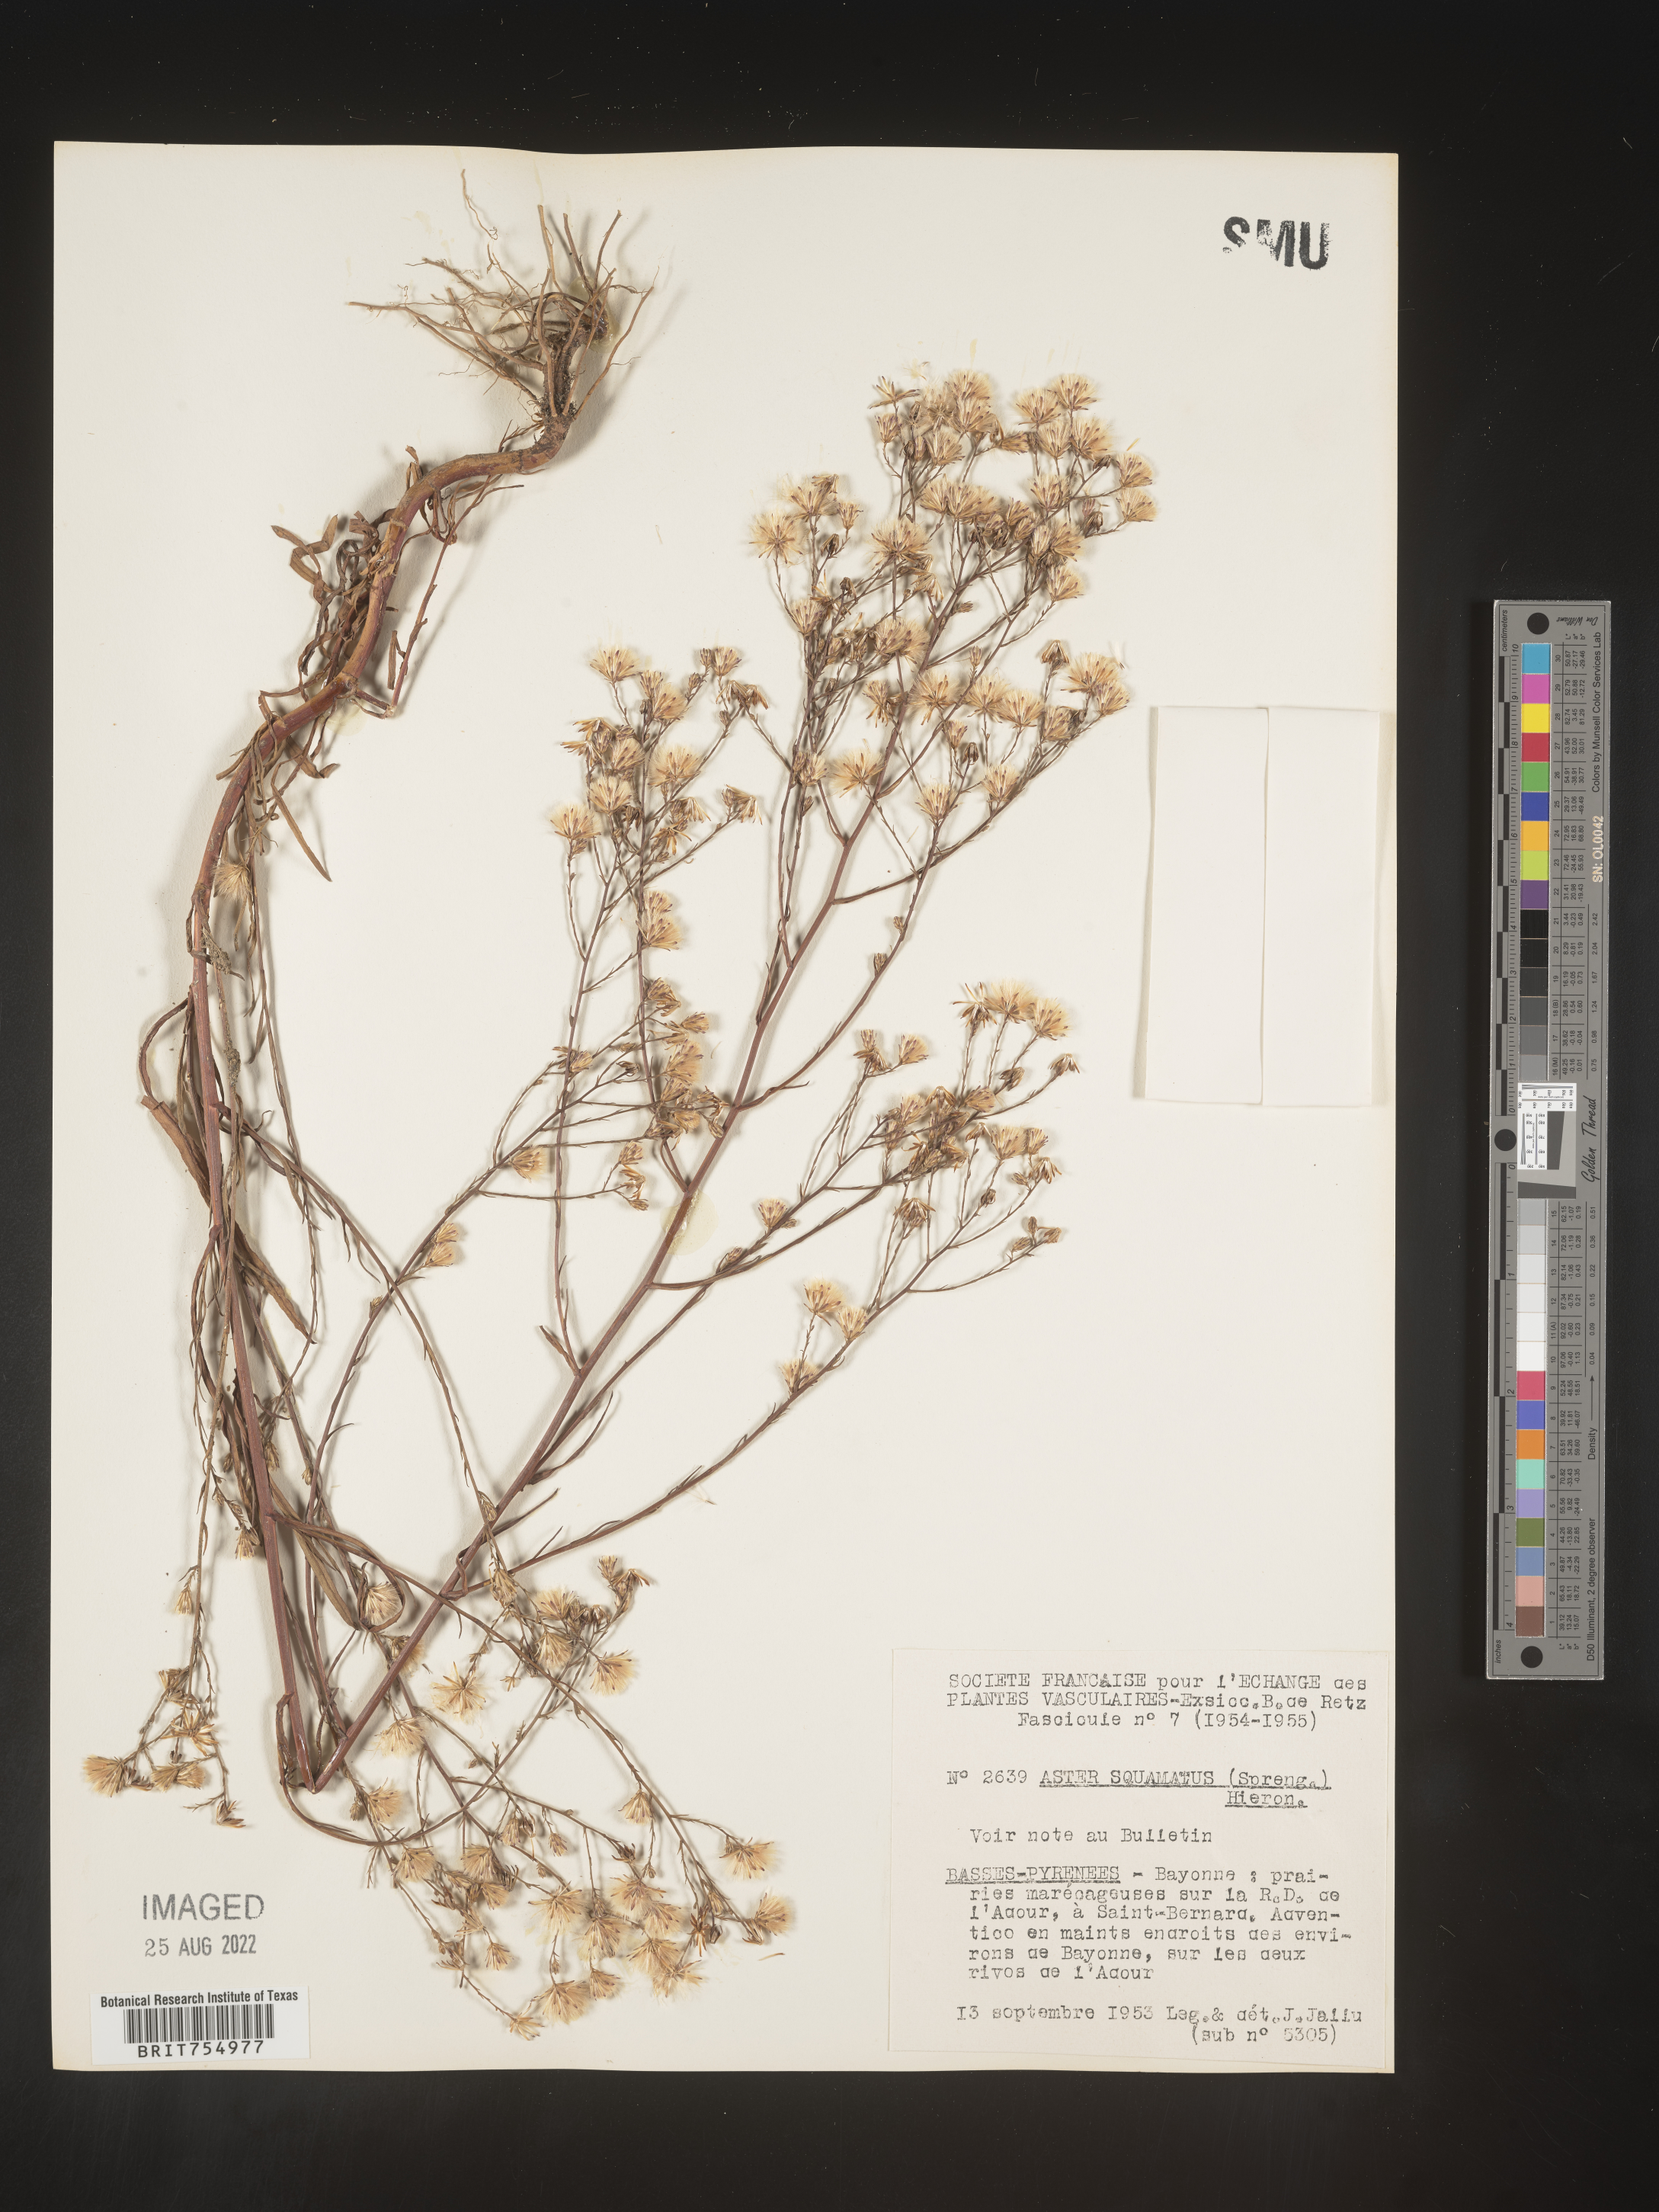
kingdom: Plantae
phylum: Tracheophyta
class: Magnoliopsida
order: Asterales
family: Asteraceae
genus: Symphyotrichum
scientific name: Symphyotrichum
